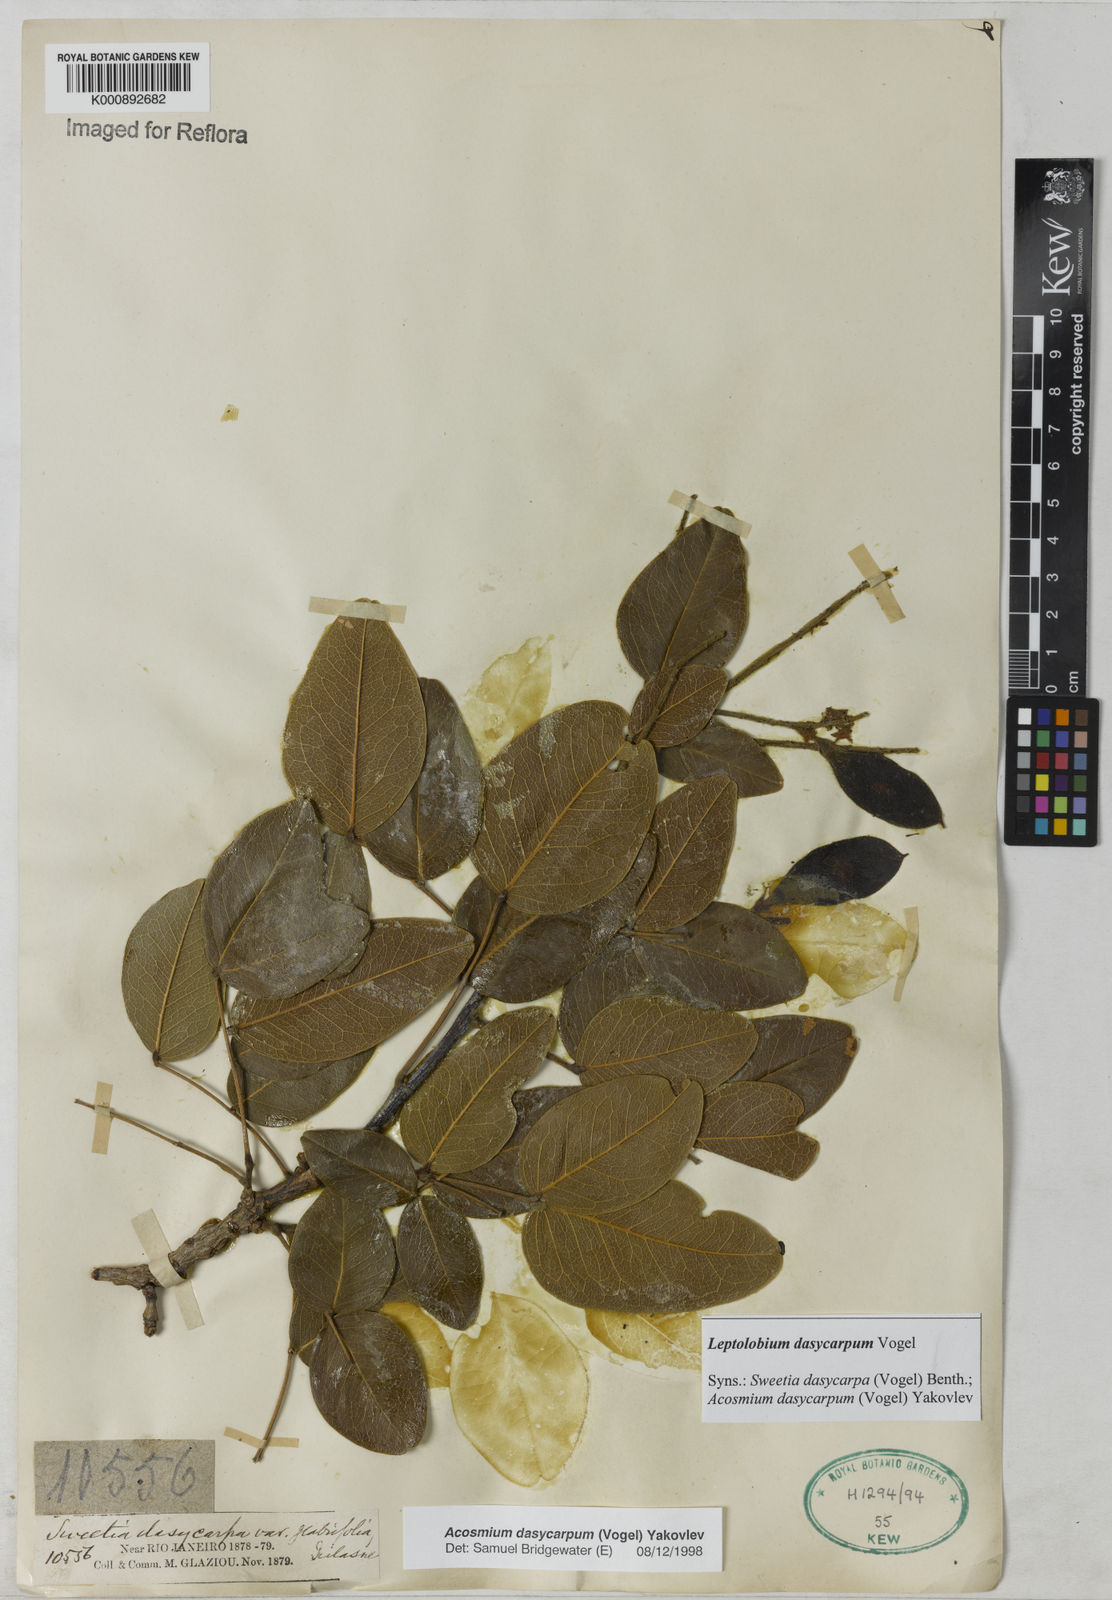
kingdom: Plantae
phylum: Tracheophyta
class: Magnoliopsida
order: Fabales
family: Fabaceae
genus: Leptolobium
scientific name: Leptolobium dasycarpum
